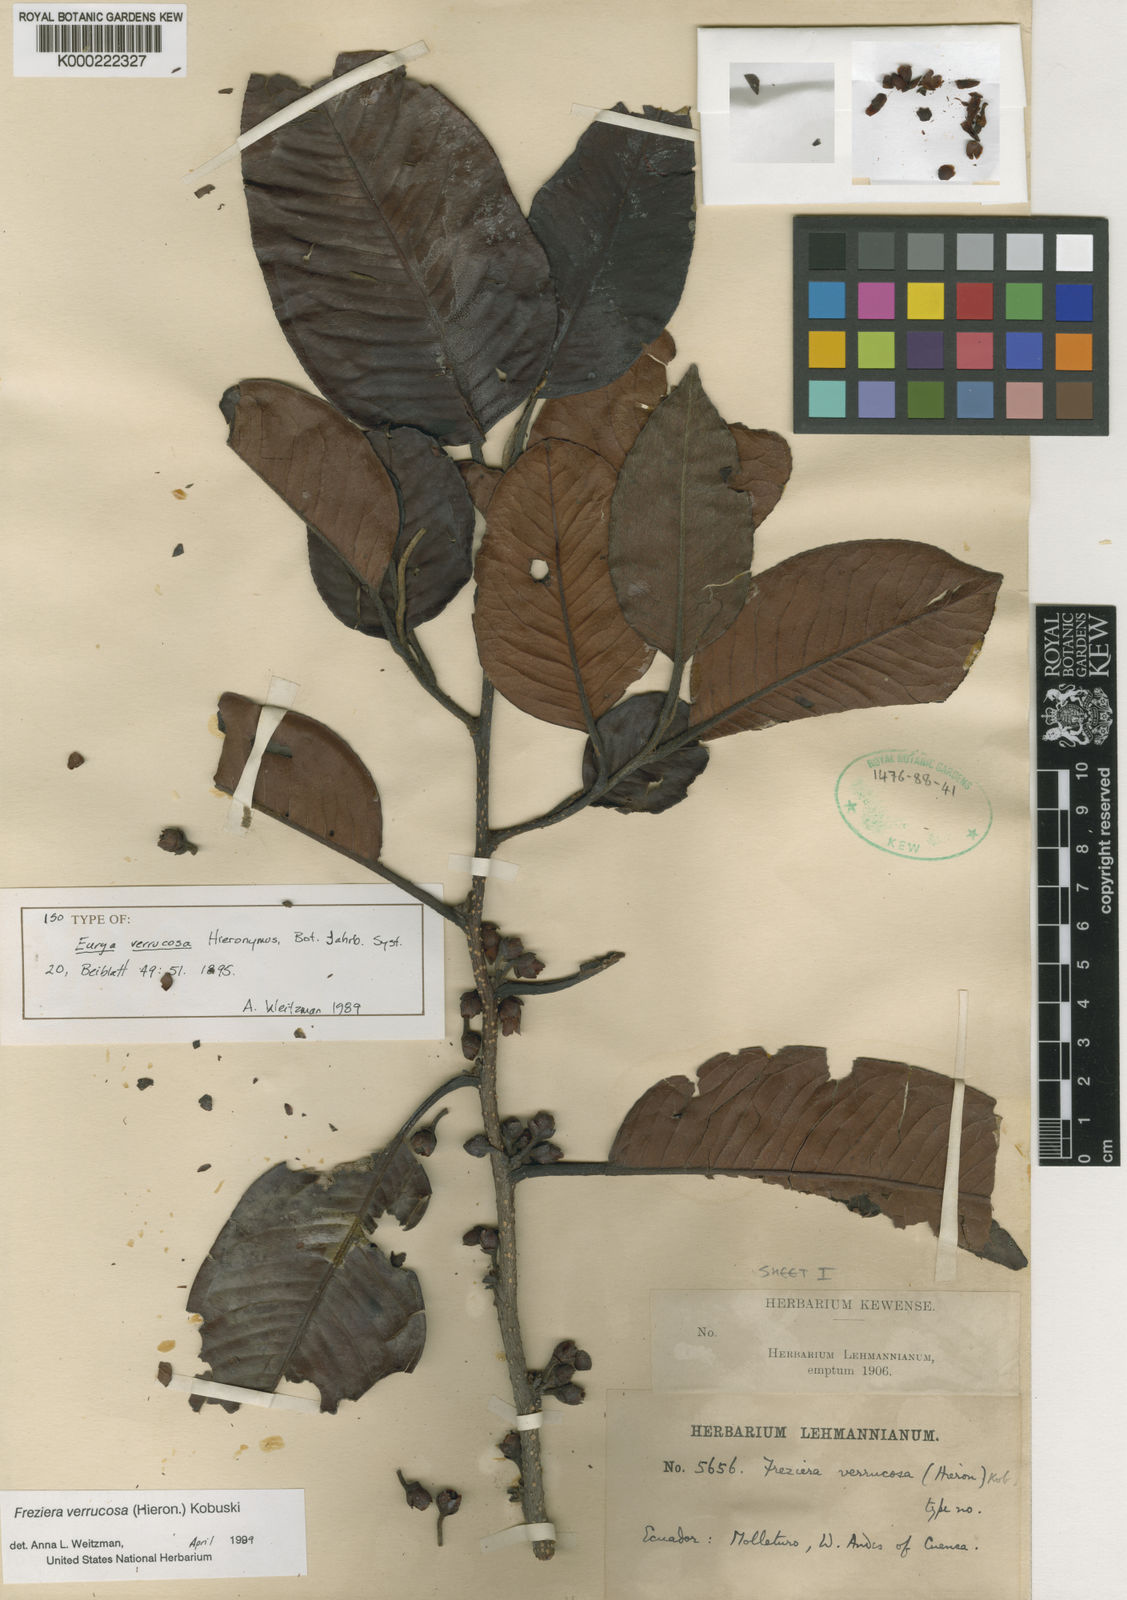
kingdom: Plantae
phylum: Tracheophyta
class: Magnoliopsida
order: Ericales
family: Pentaphylacaceae
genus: Freziera
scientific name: Freziera verrucosa
